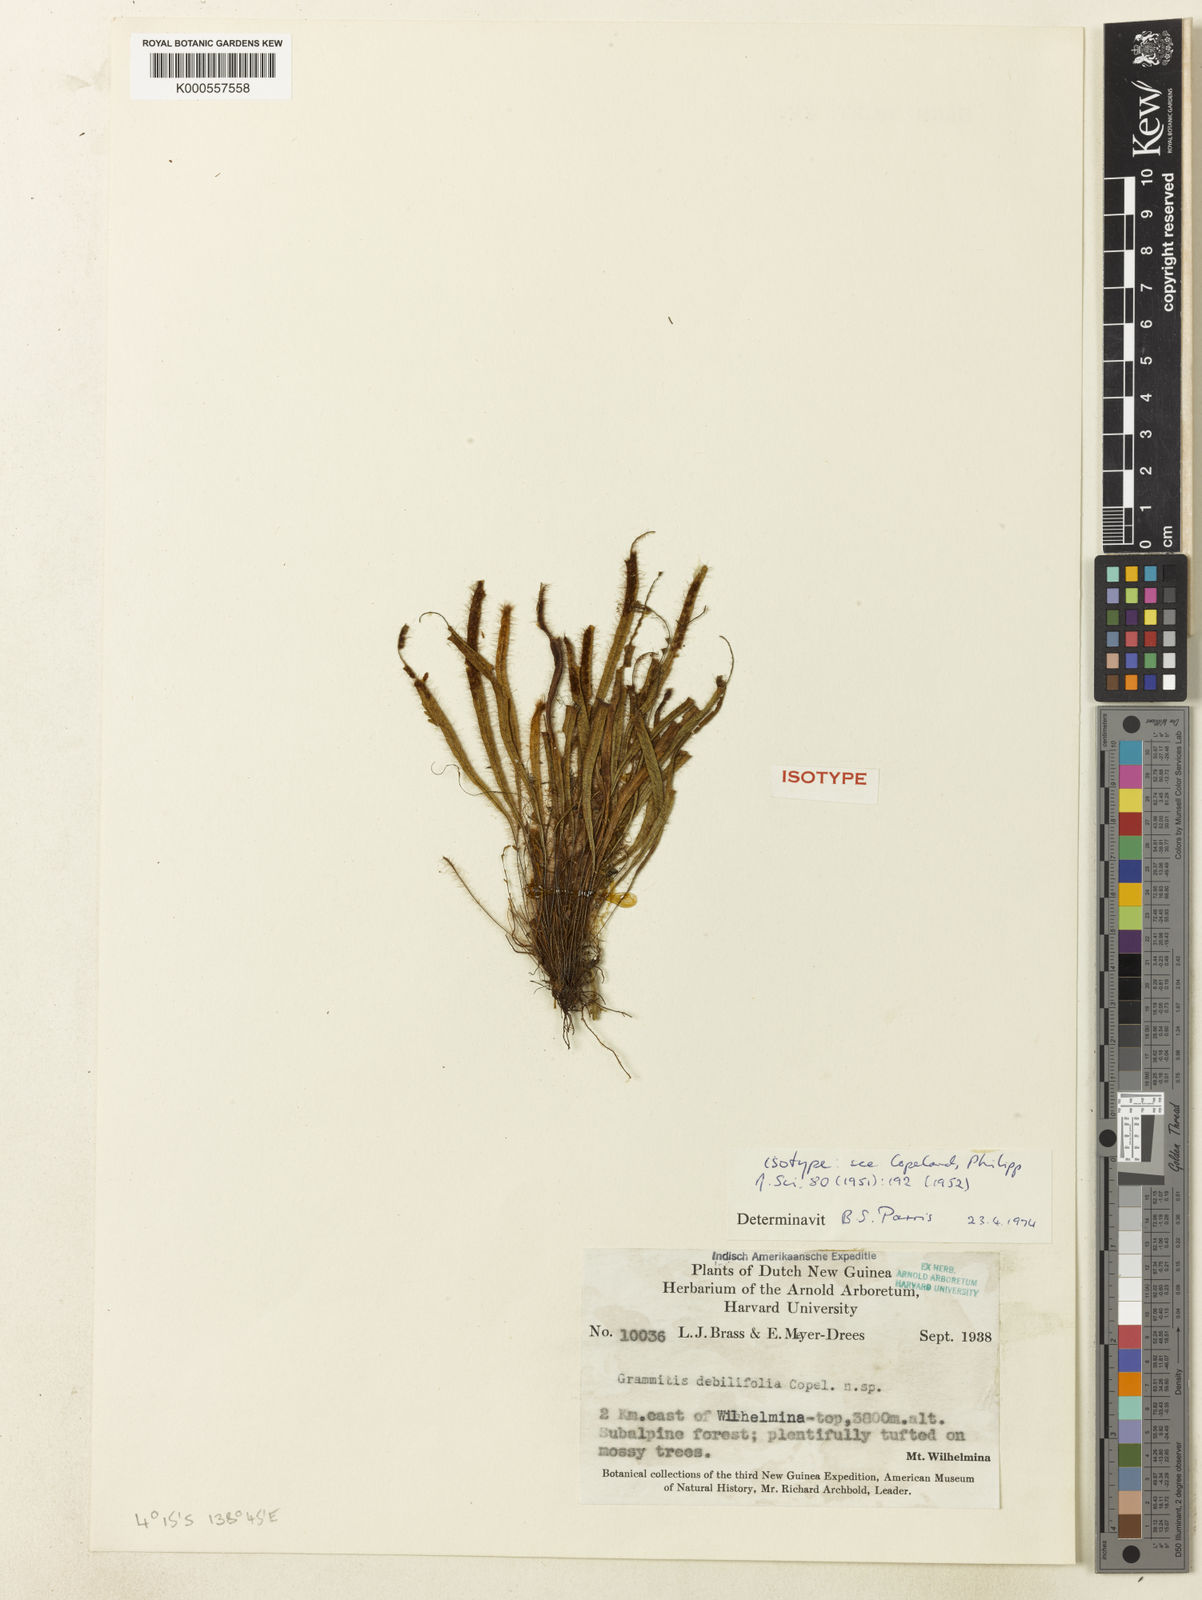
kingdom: Plantae
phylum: Tracheophyta
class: Polypodiopsida
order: Polypodiales
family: Polypodiaceae
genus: Oreogrammitis
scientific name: Oreogrammitis debilifolia
